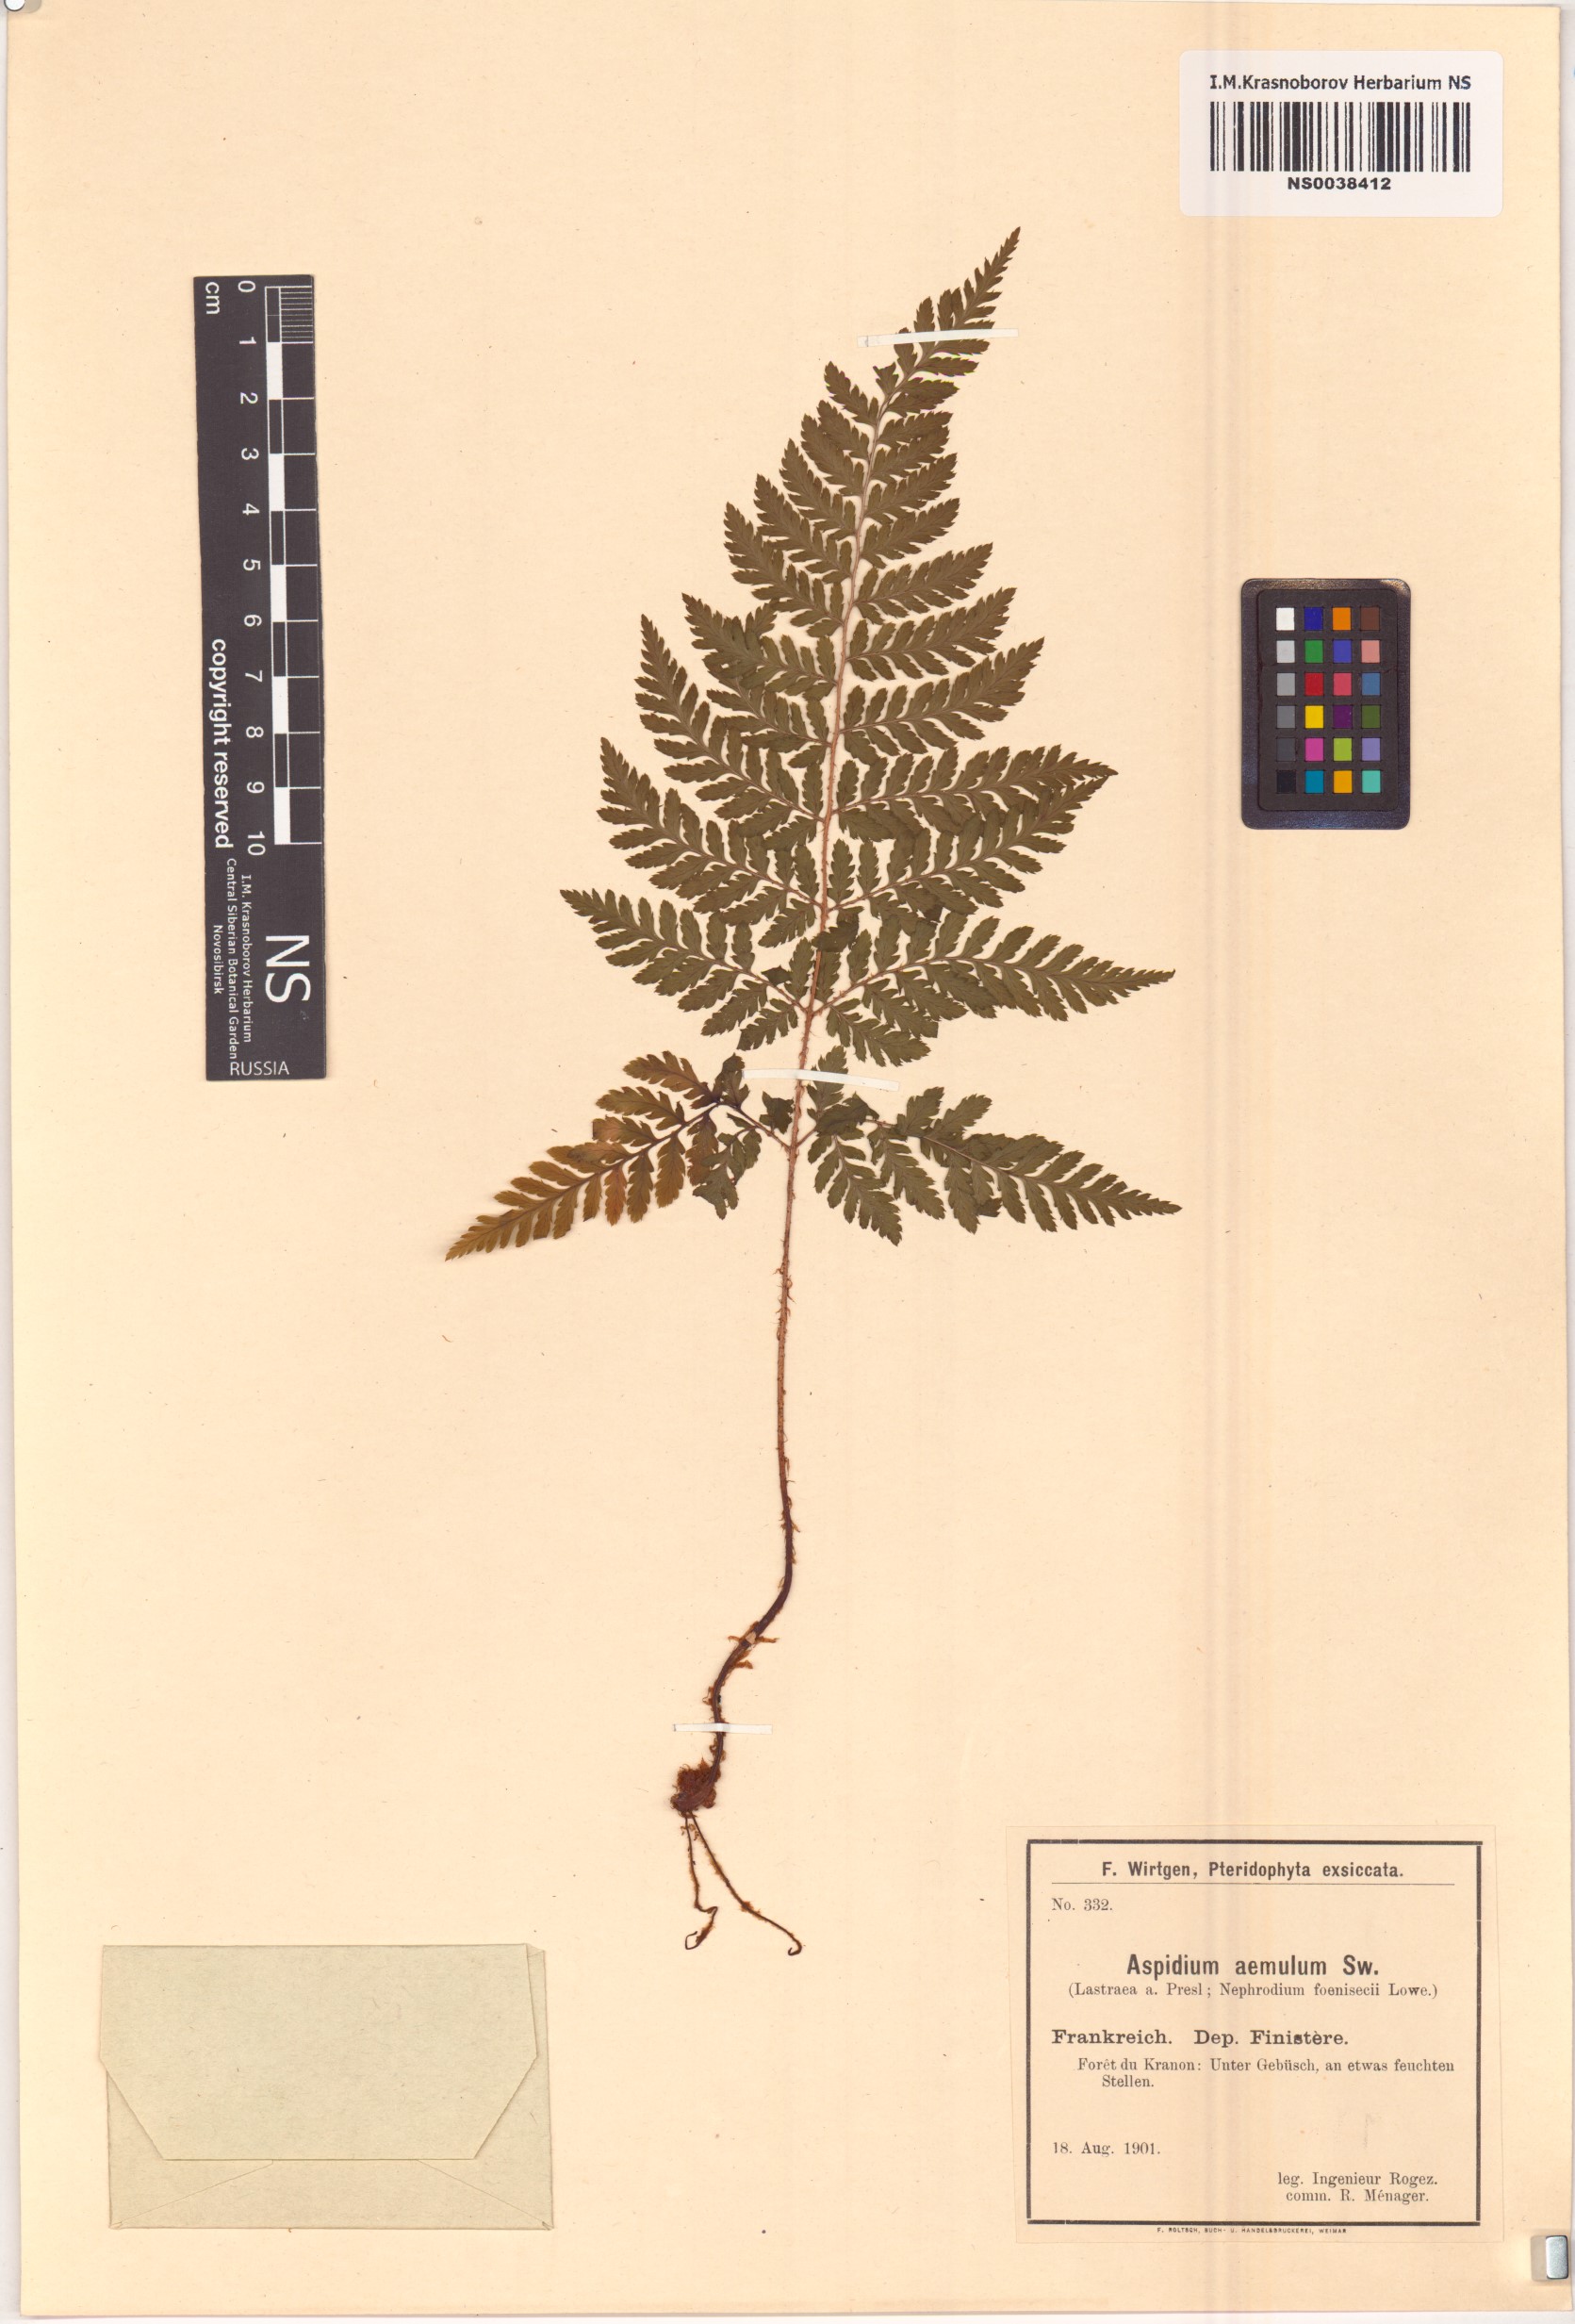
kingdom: Plantae
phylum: Tracheophyta
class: Polypodiopsida
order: Polypodiales
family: Dryopteridaceae
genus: Dryopteris
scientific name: Dryopteris aemula
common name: Hay-scented buckler-fern
